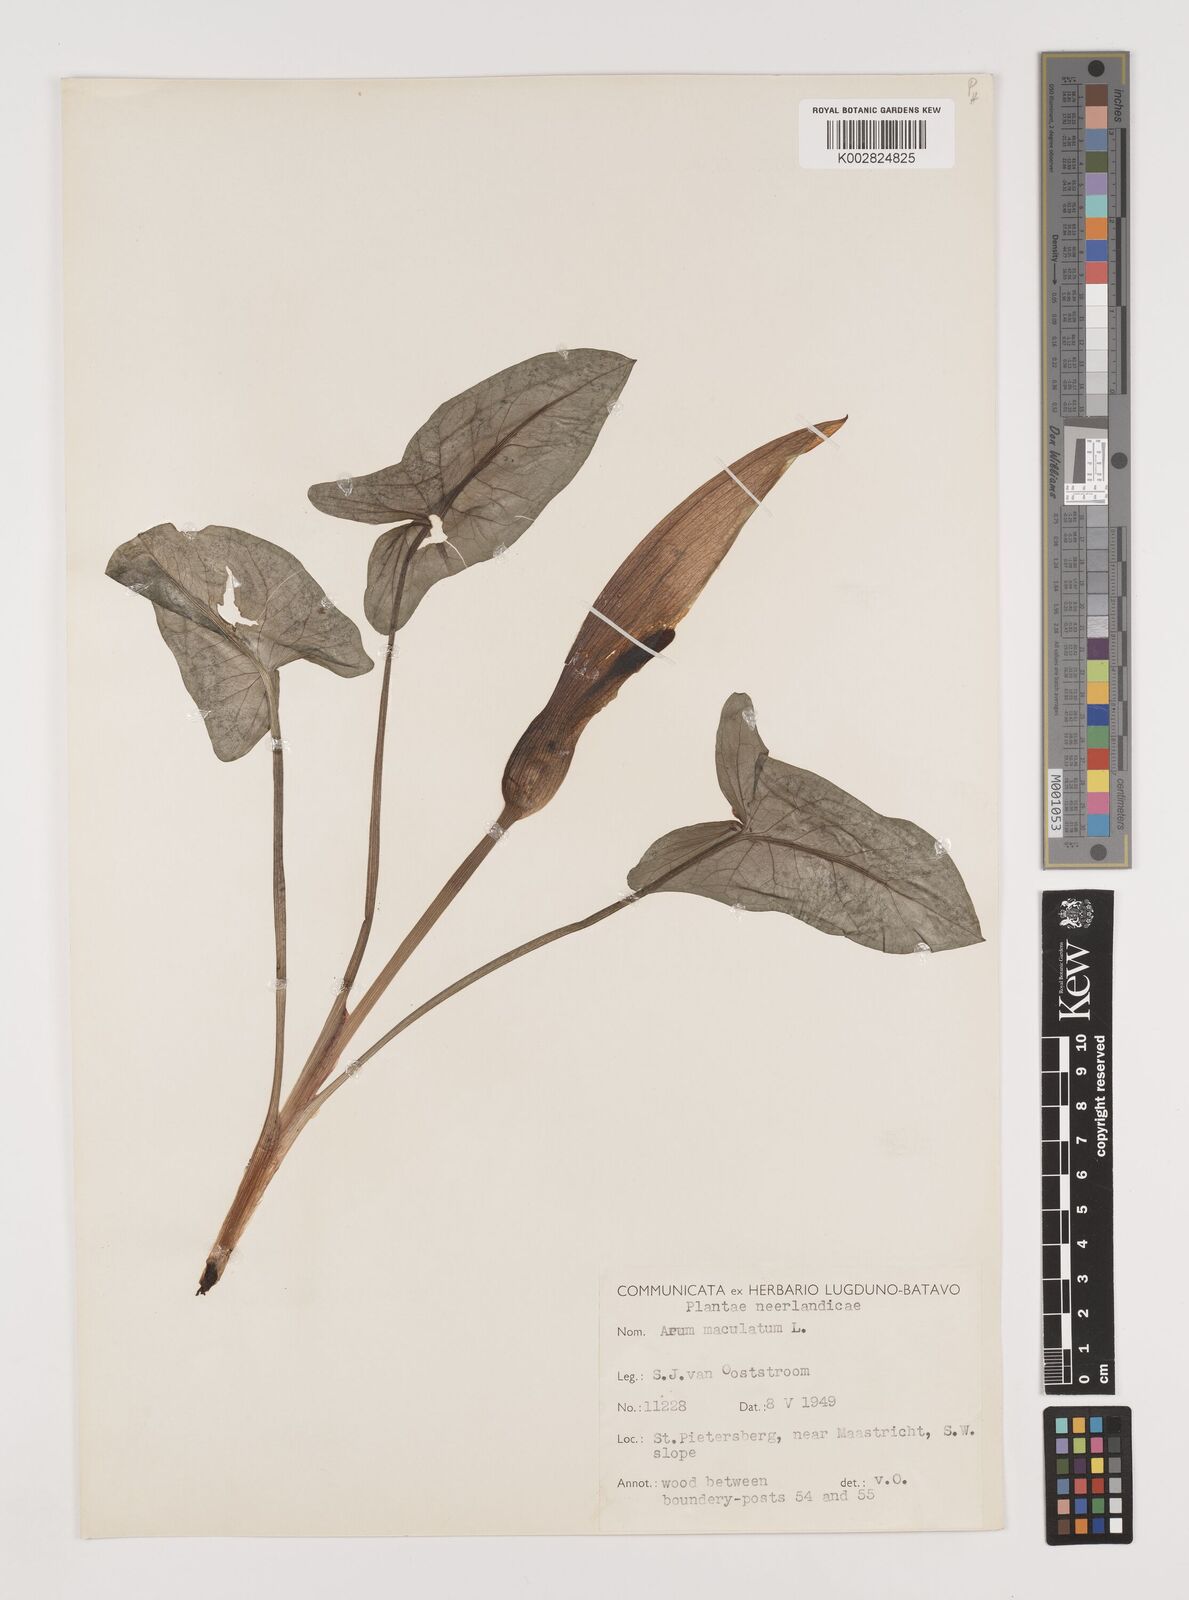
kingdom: Plantae
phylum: Tracheophyta
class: Liliopsida
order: Alismatales
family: Araceae
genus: Arum
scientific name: Arum maculatum
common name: Lords-and-ladies
